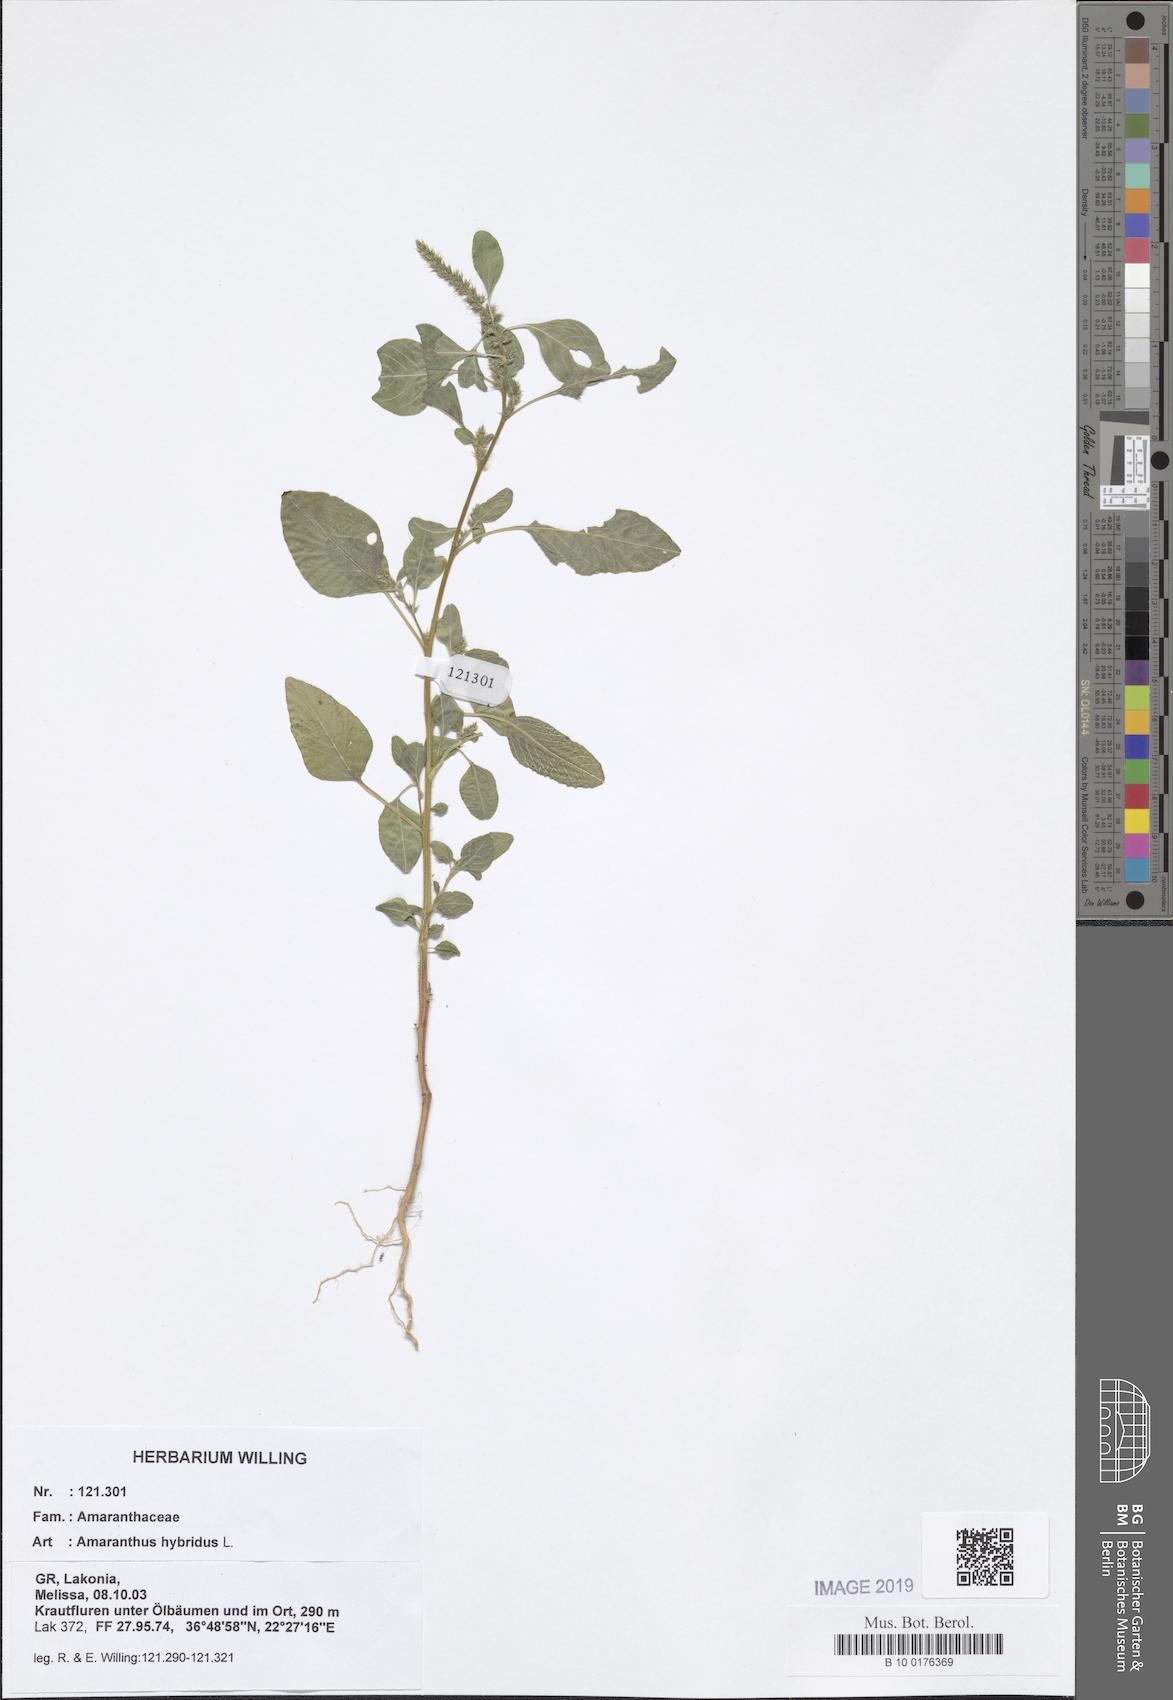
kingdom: Plantae
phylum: Tracheophyta
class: Magnoliopsida
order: Caryophyllales
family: Amaranthaceae
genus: Amaranthus
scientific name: Amaranthus hybridus
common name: Green amaranth
